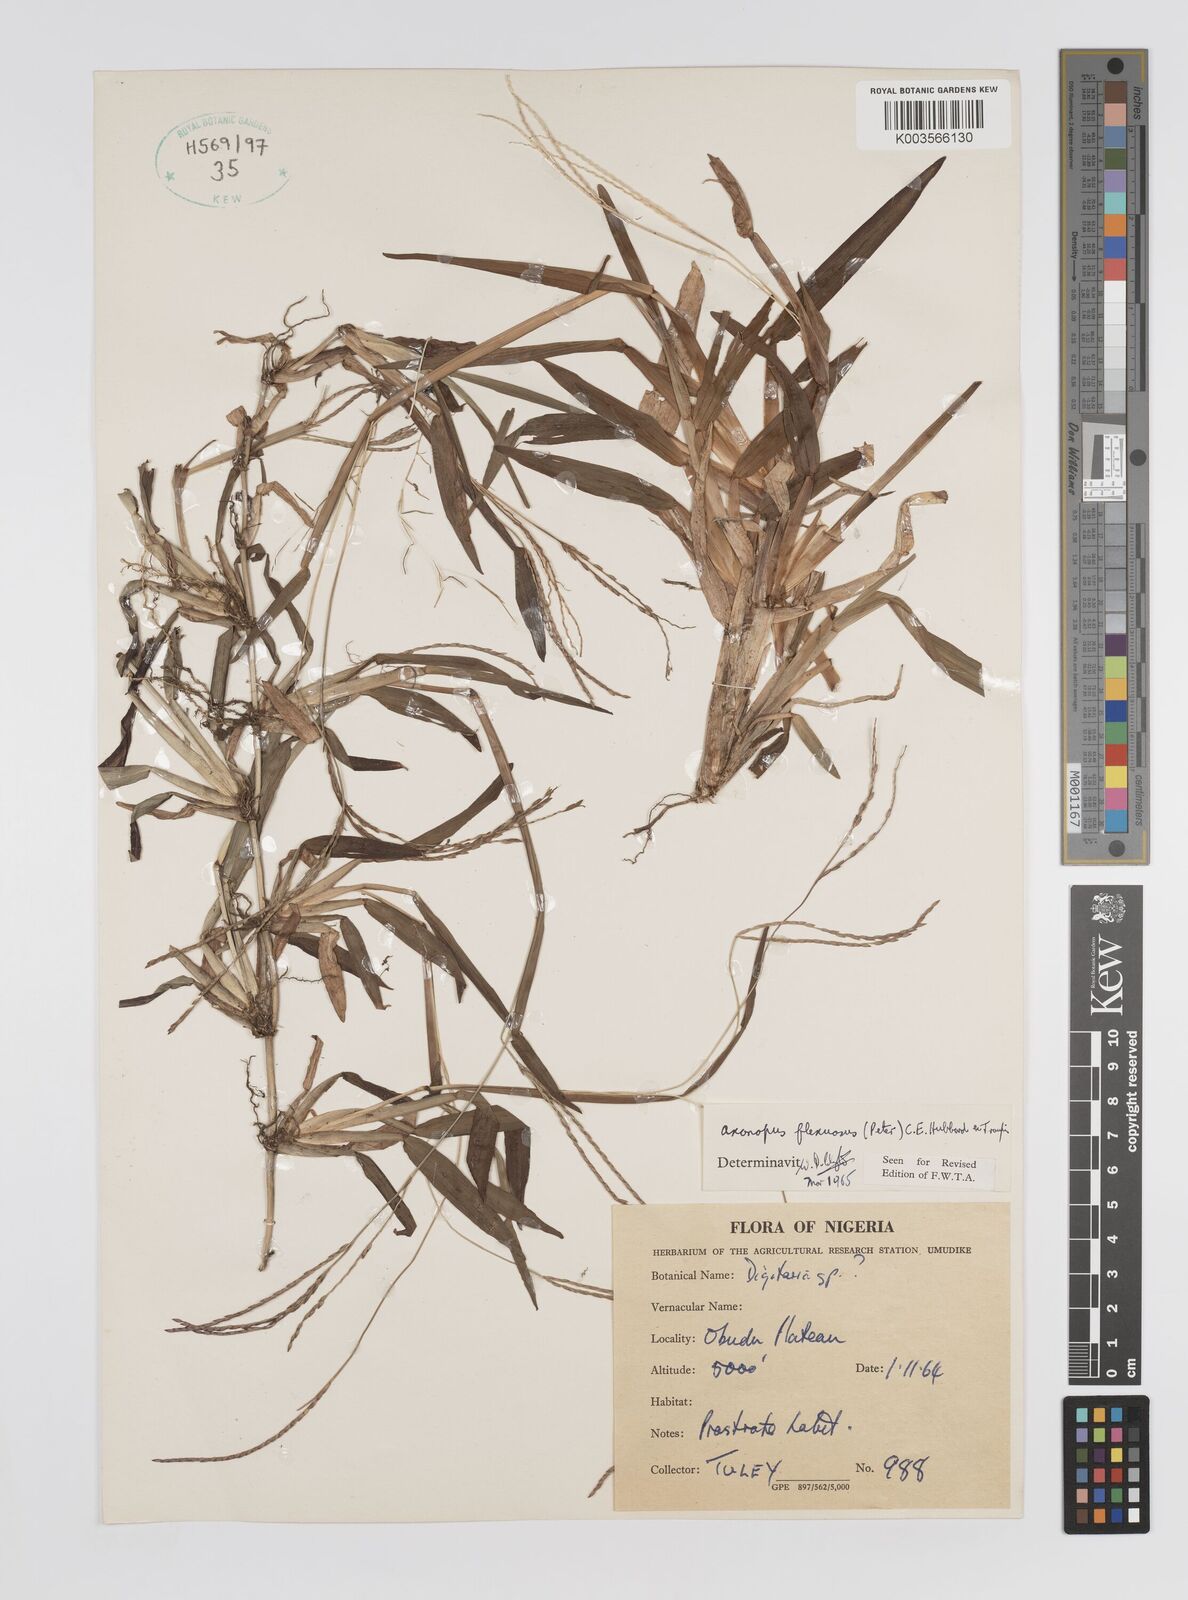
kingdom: Plantae
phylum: Tracheophyta
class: Liliopsida
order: Poales
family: Poaceae
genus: Axonopus
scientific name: Axonopus flexuosus
